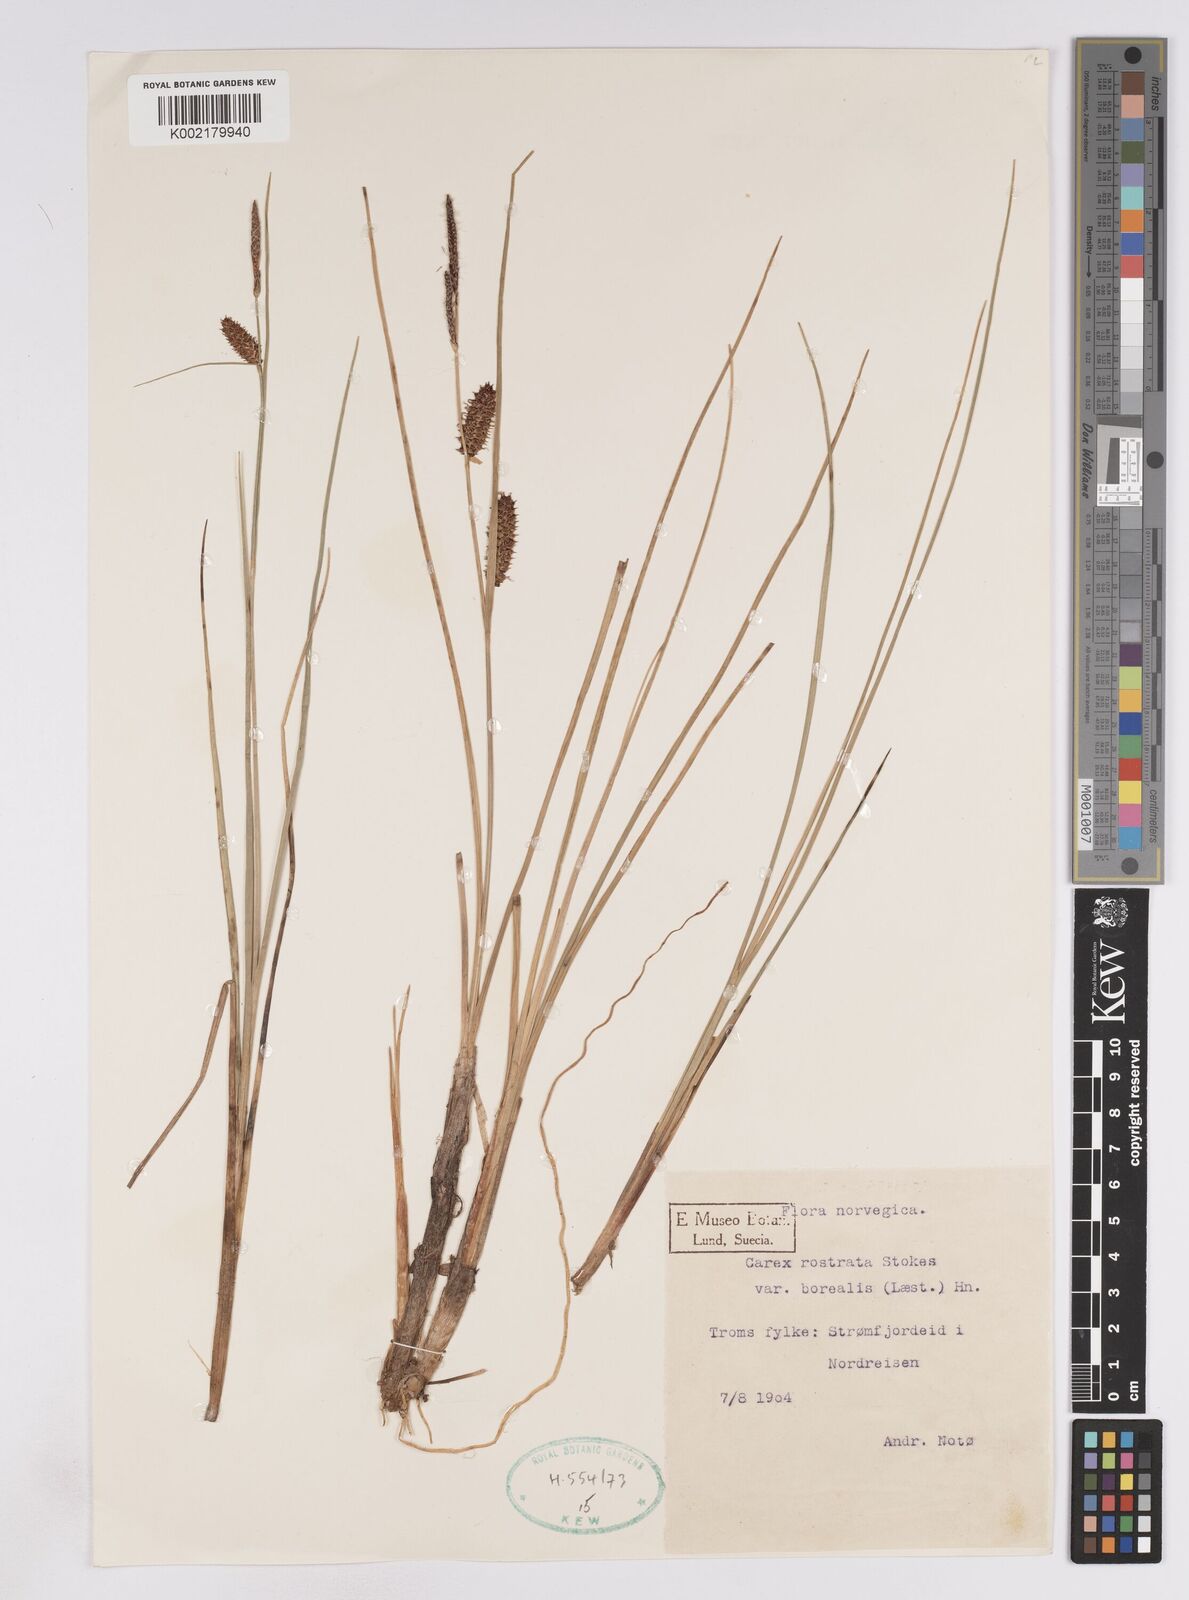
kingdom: Plantae
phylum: Tracheophyta
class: Liliopsida
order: Poales
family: Cyperaceae
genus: Carex
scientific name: Carex saamica
